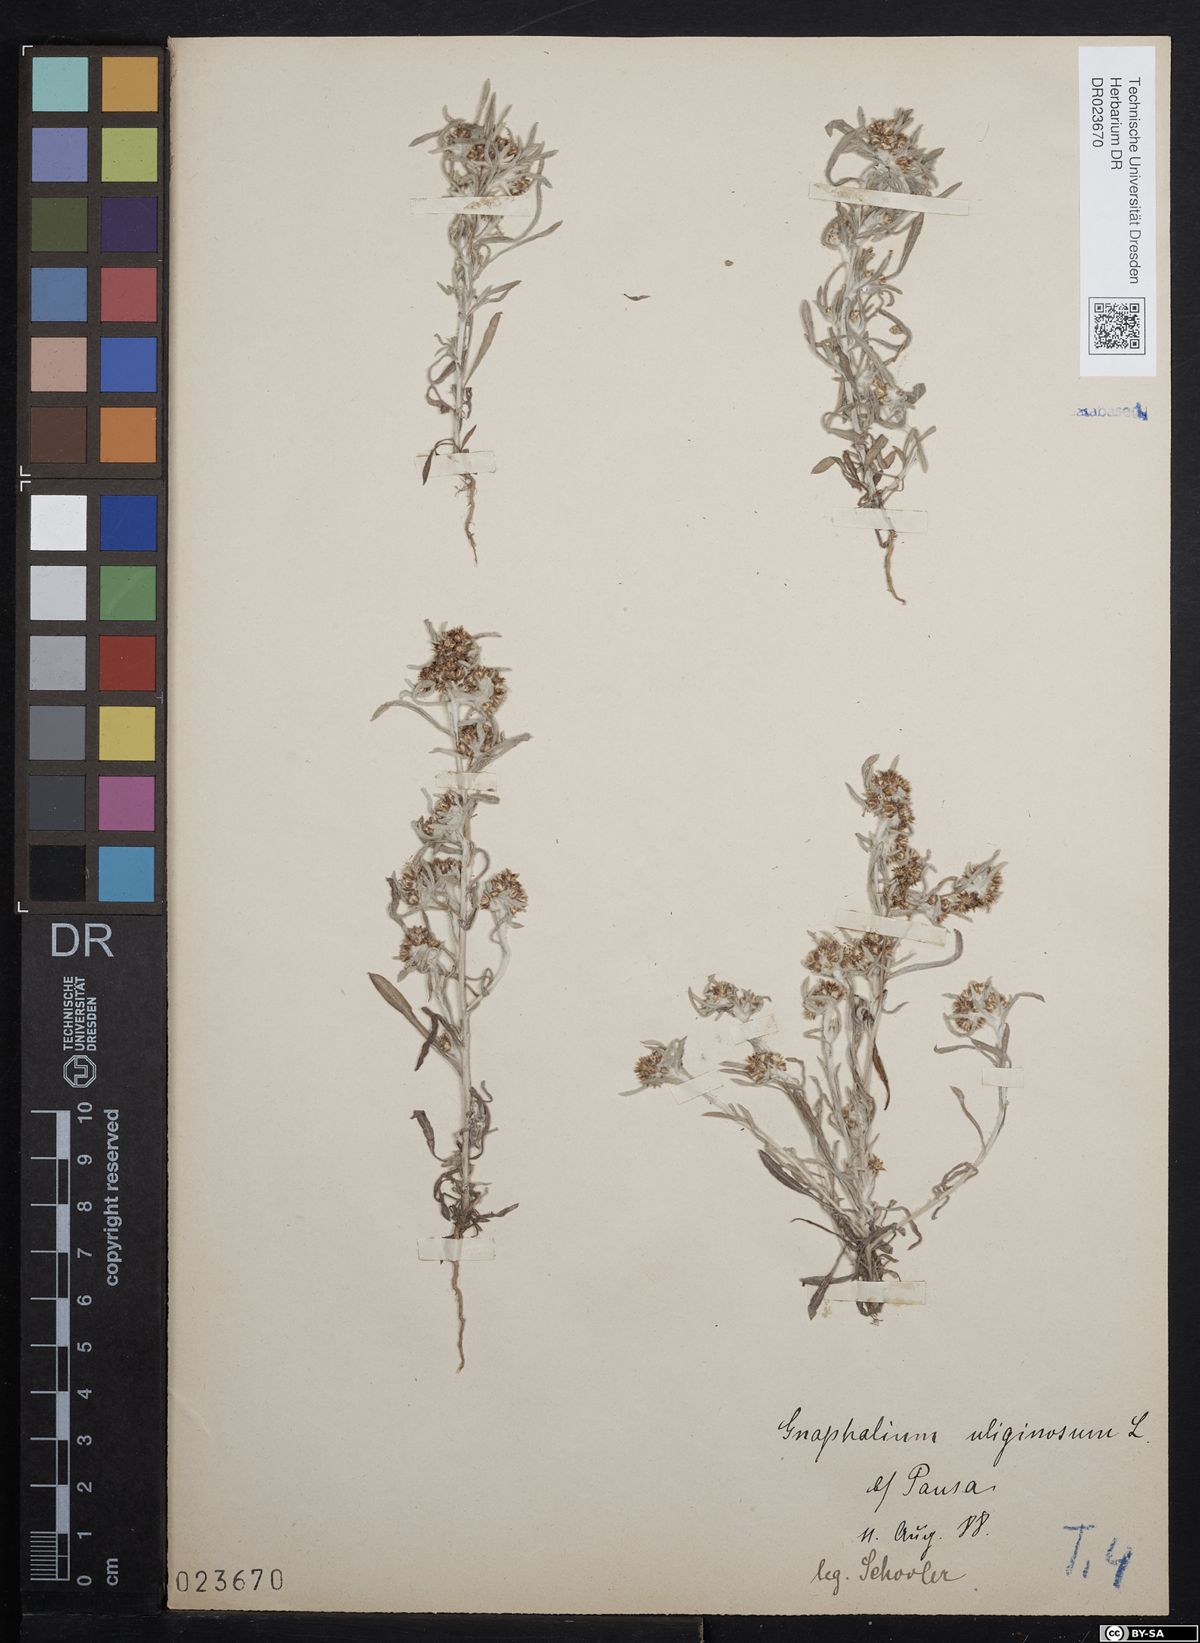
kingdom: Plantae
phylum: Tracheophyta
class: Magnoliopsida
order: Asterales
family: Asteraceae
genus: Gnaphalium
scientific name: Gnaphalium uliginosum
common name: Marsh cudweed
